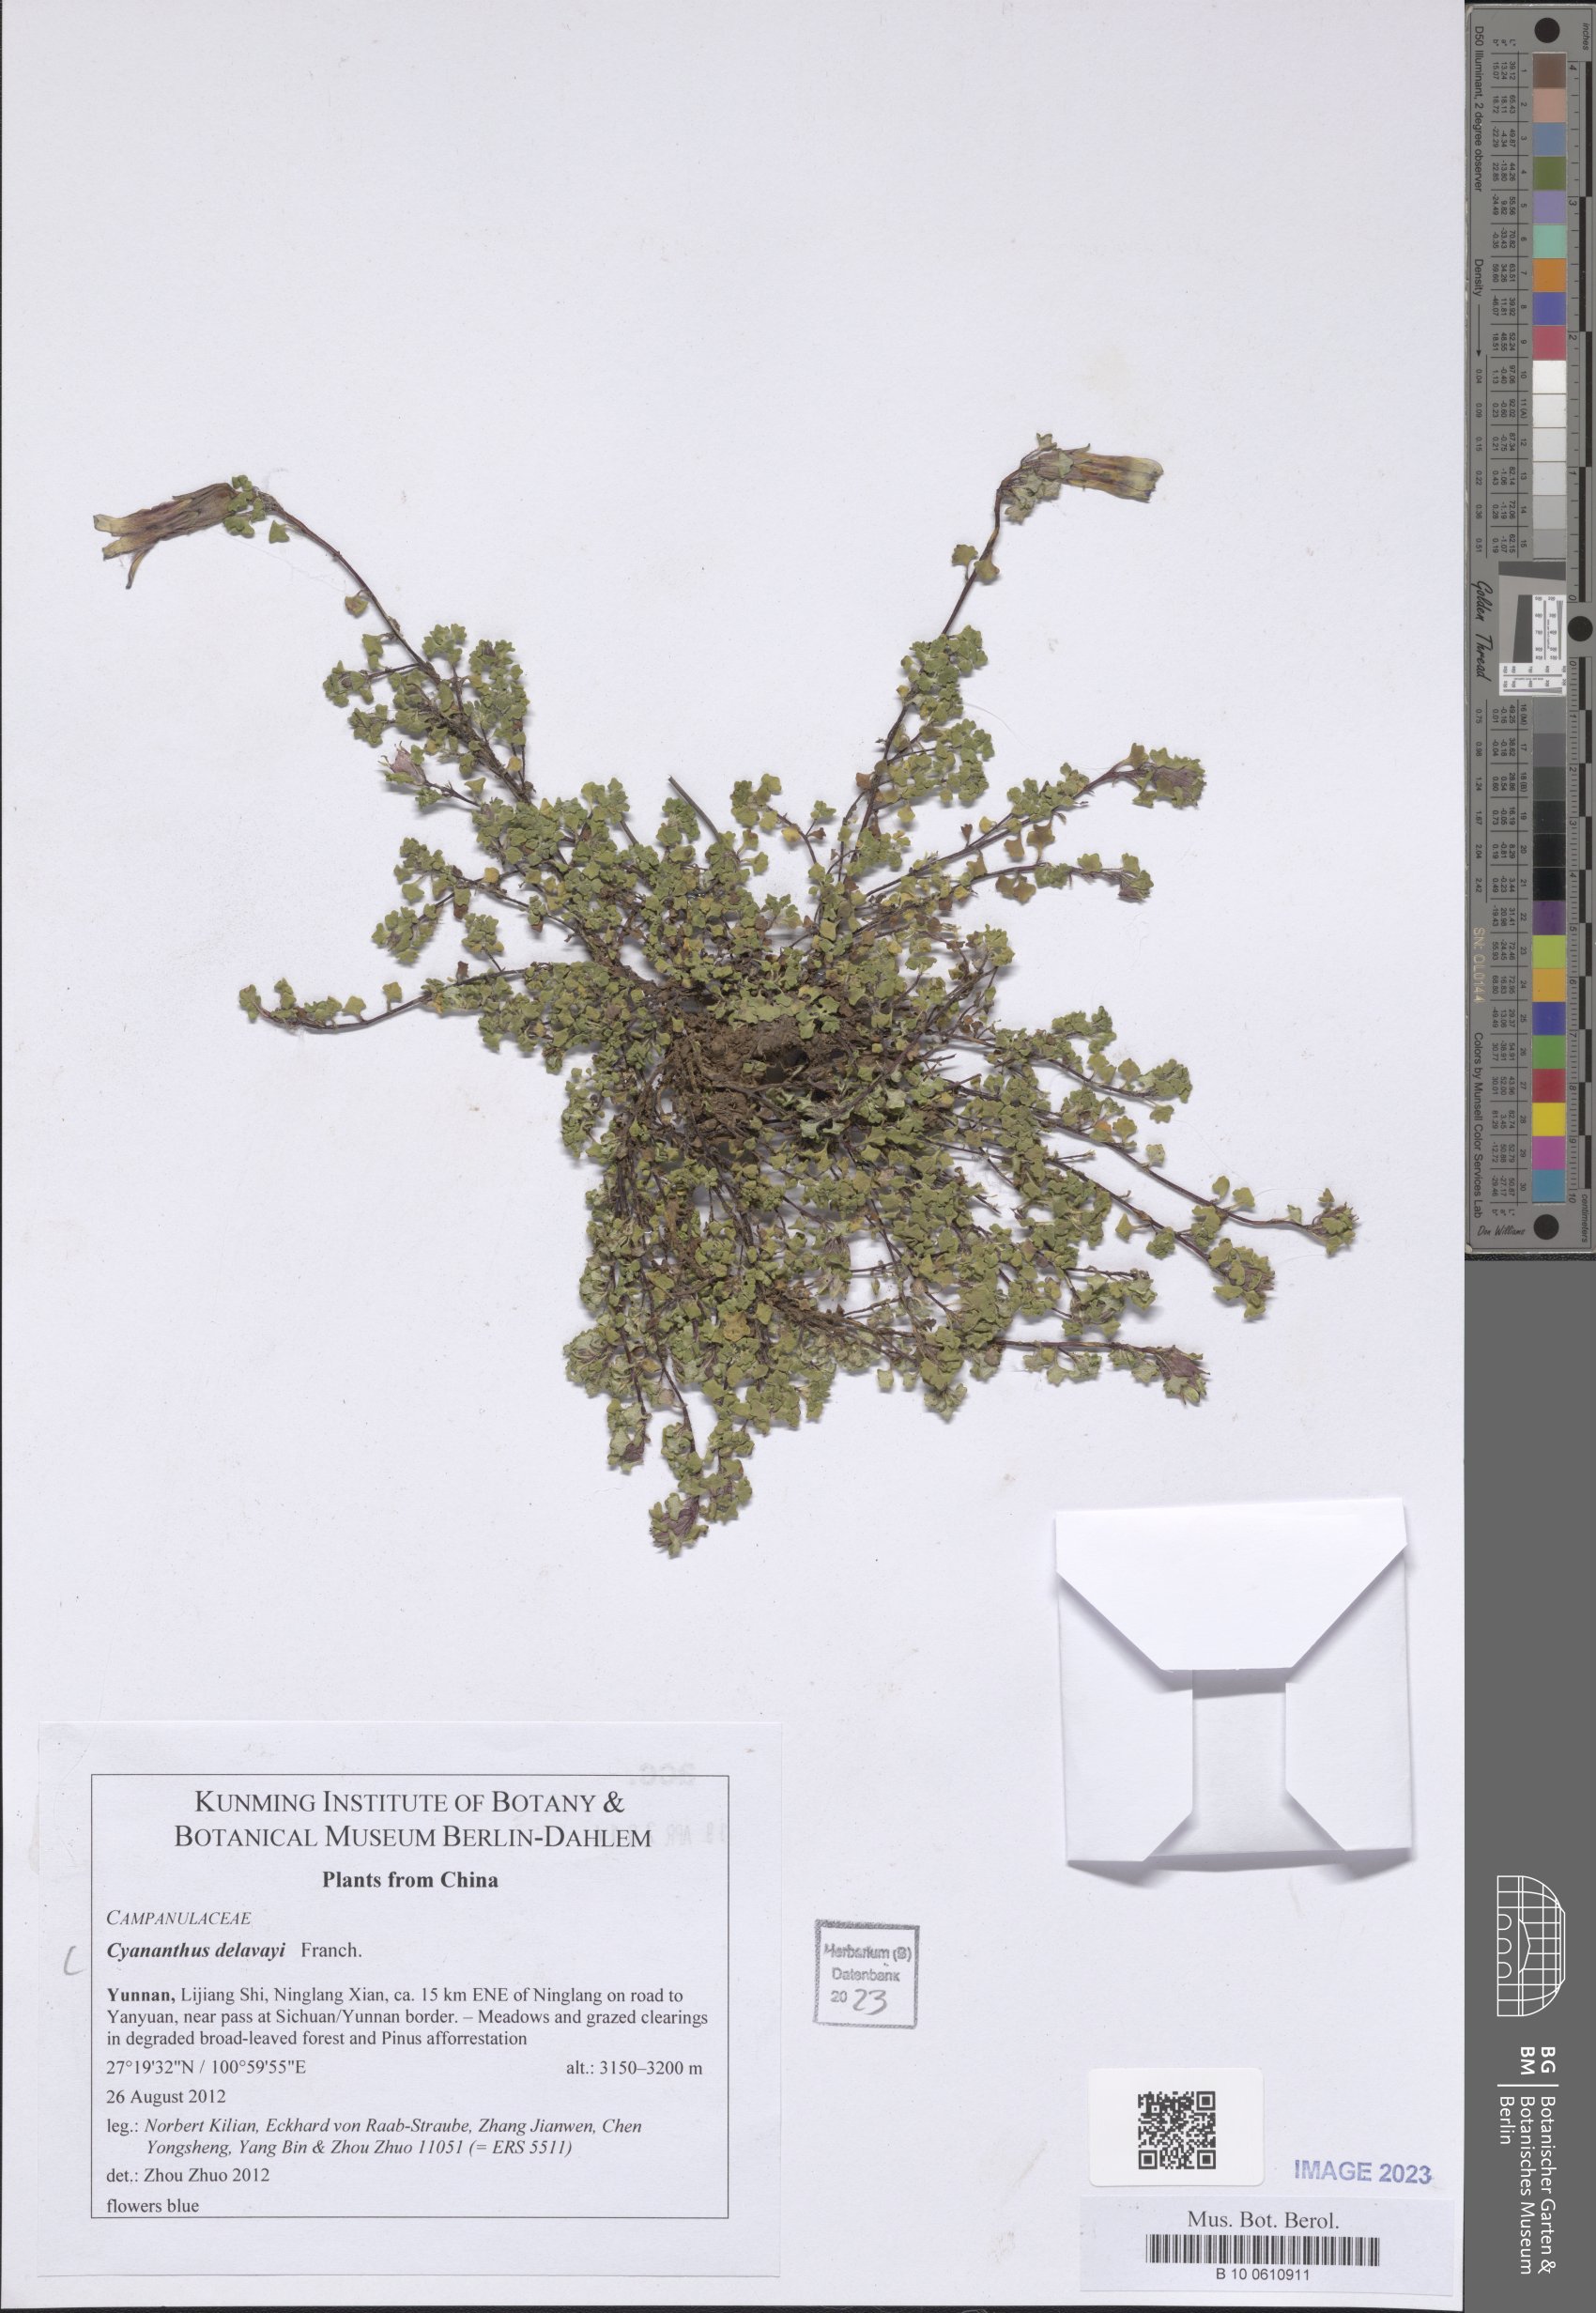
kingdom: Plantae
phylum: Tracheophyta
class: Magnoliopsida
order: Asterales
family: Campanulaceae
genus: Cyananthus
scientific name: Cyananthus delavayi
